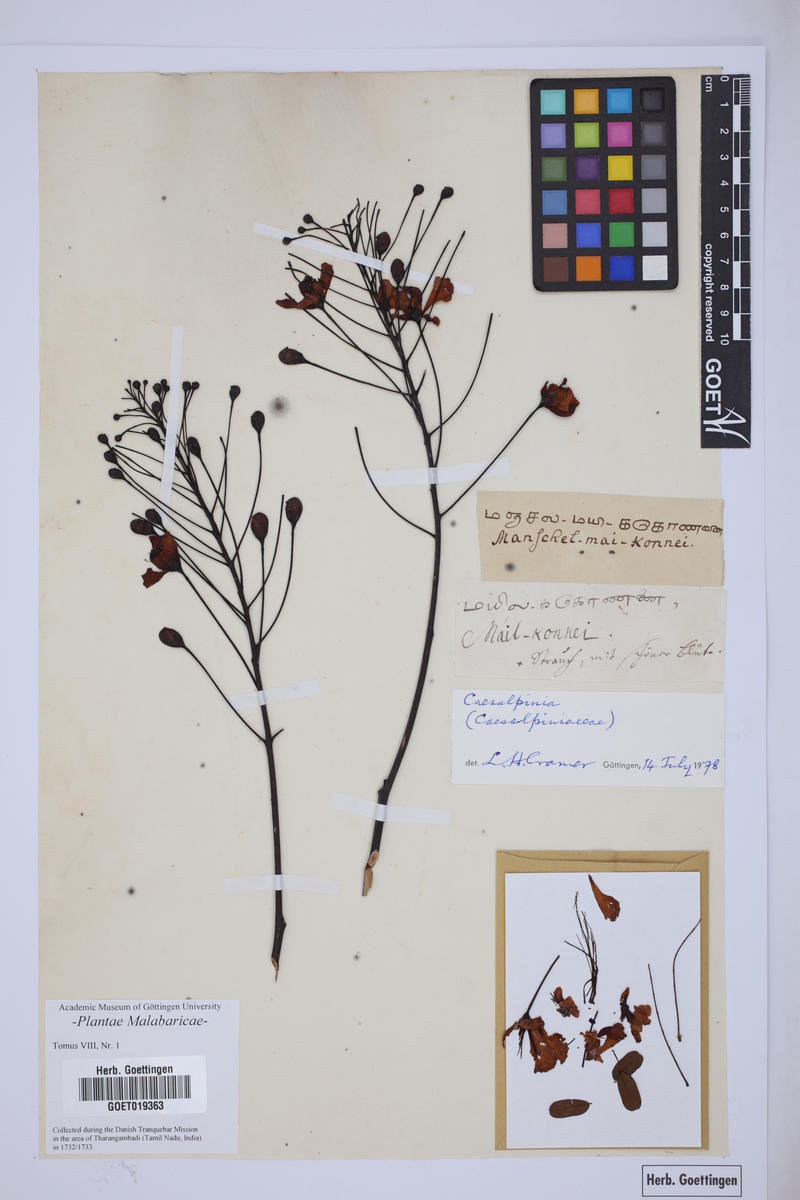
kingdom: Plantae
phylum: Tracheophyta
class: Magnoliopsida
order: Fabales
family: Fabaceae
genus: Caesalpinia
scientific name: Caesalpinia
